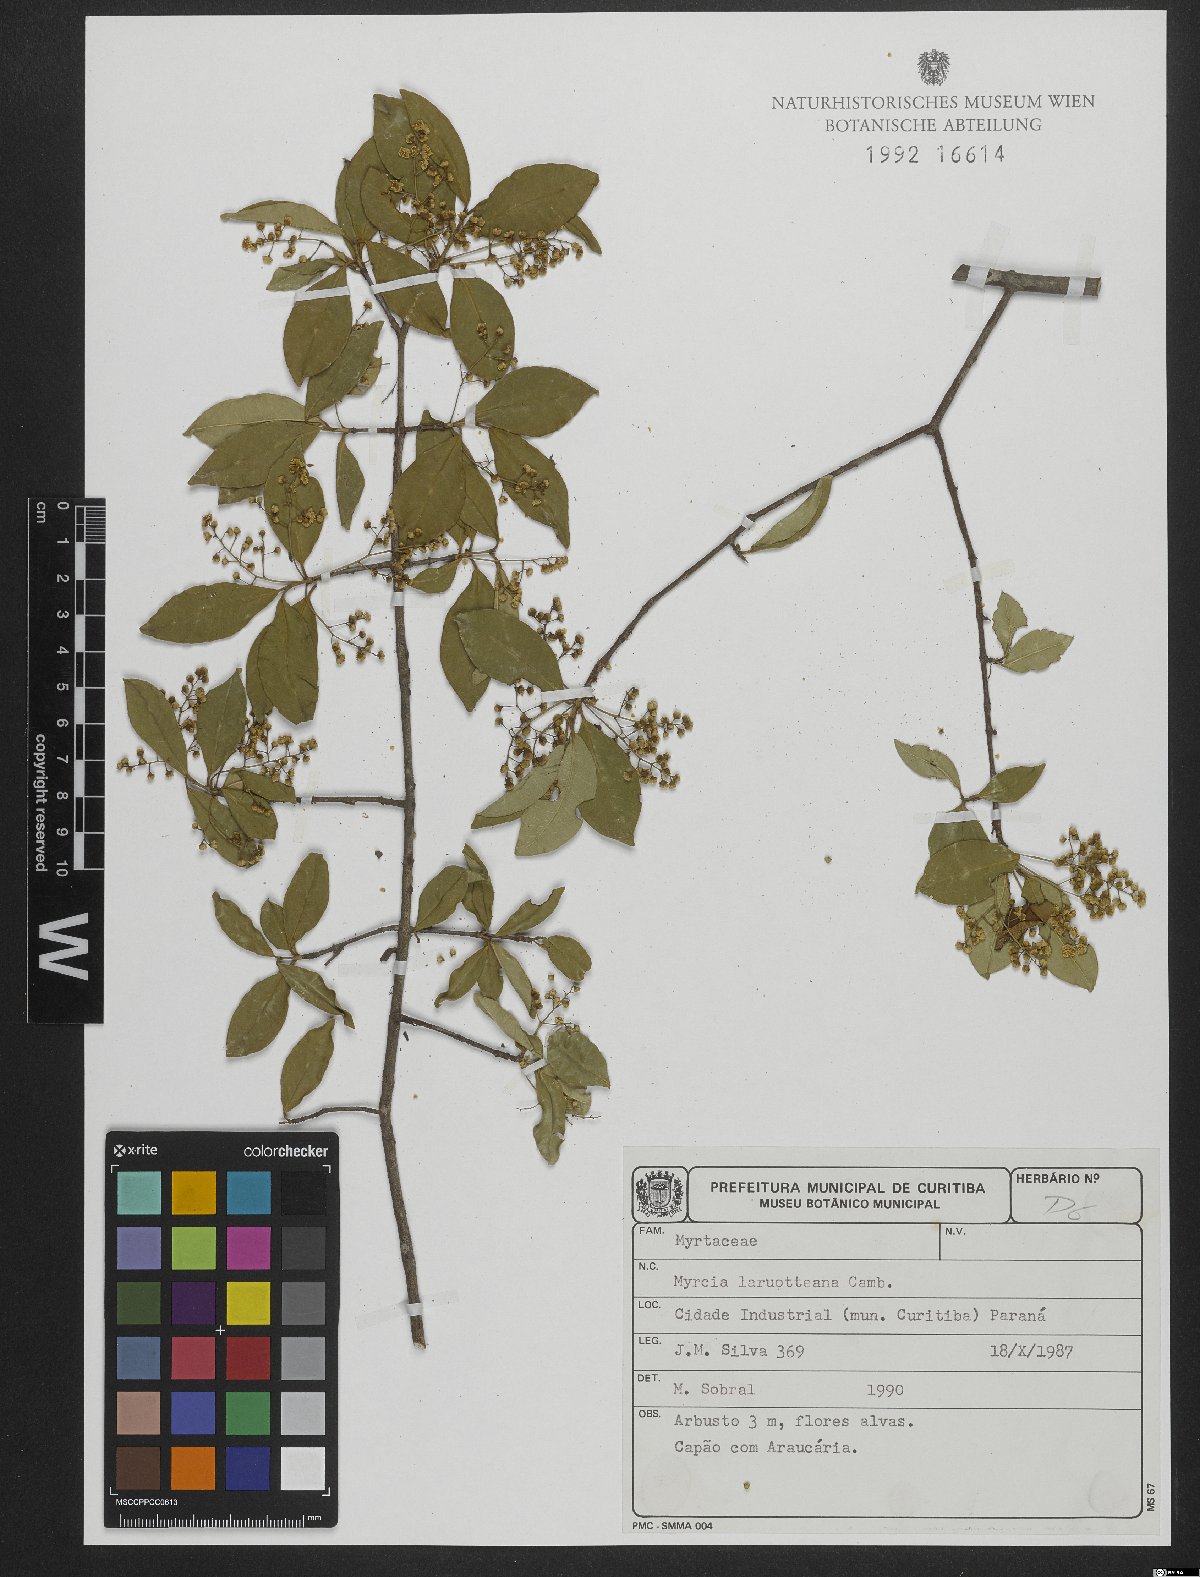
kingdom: Plantae
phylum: Tracheophyta
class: Magnoliopsida
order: Myrtales
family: Myrtaceae
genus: Myrcia
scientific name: Myrcia laruotteana
